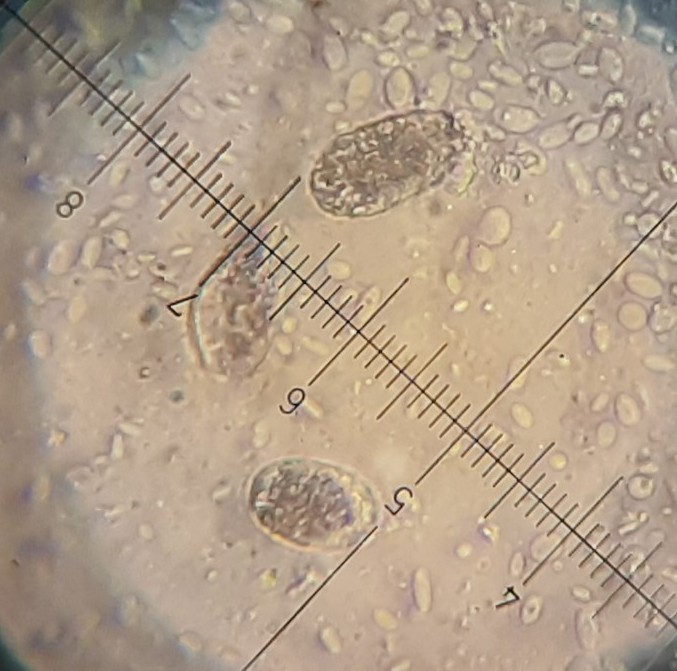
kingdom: Fungi
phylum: Ascomycota
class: Leotiomycetes
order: Helotiales
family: Erysiphaceae
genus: Erysiphe
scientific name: Erysiphe ulmariae
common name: mjødurt-meldug
